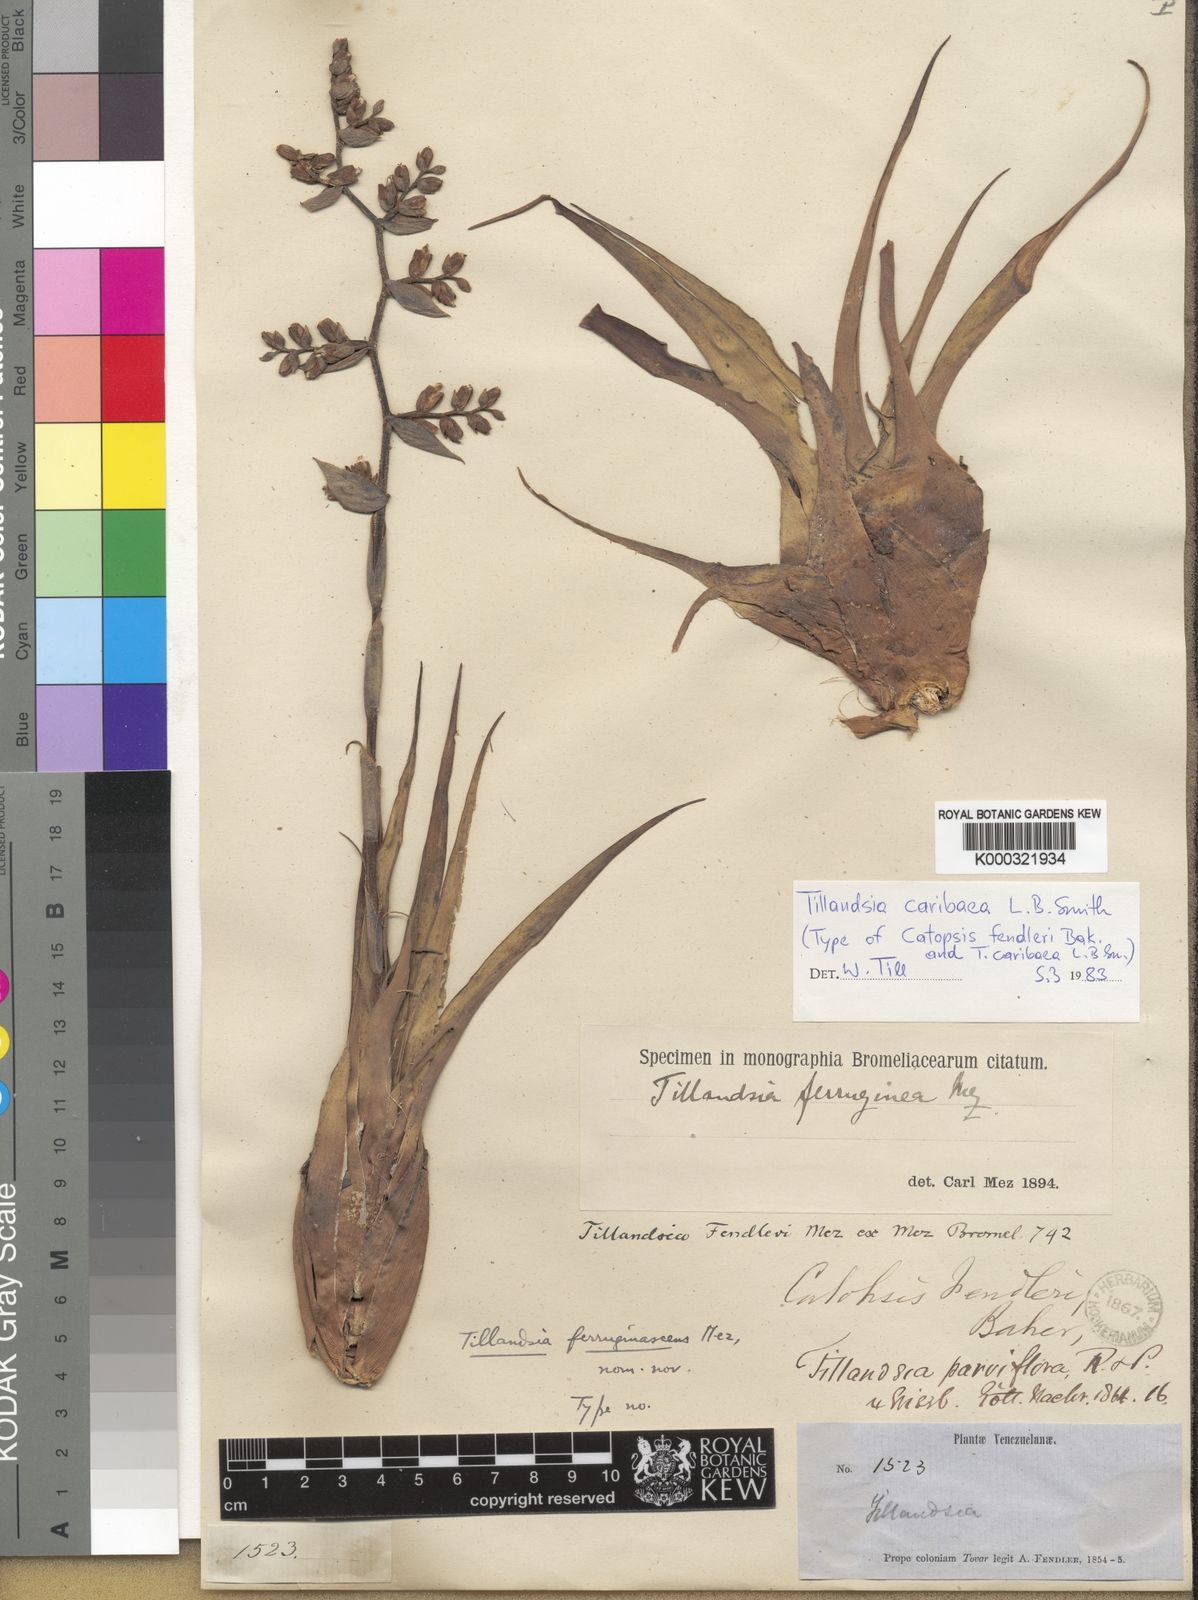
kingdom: Plantae
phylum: Tracheophyta
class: Liliopsida
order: Poales
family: Bromeliaceae
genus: Racinaea
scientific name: Racinaea tetrantha
